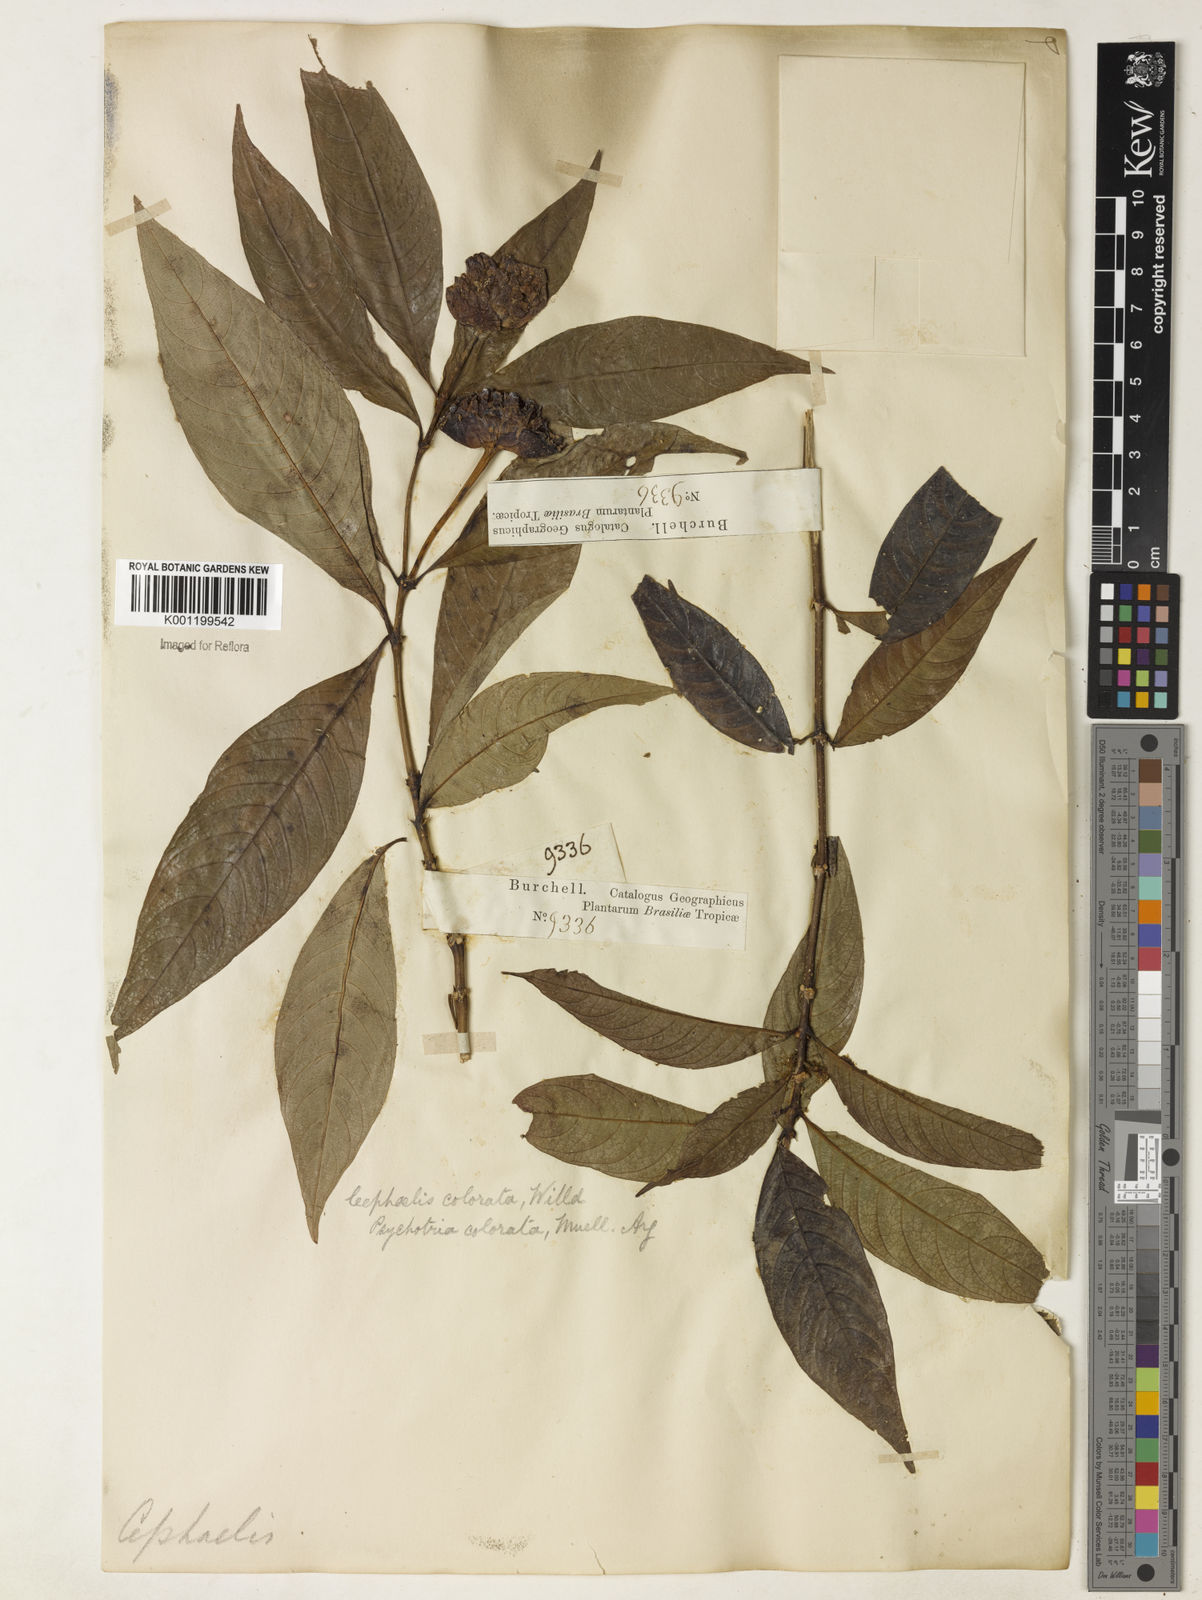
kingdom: Plantae
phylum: Tracheophyta
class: Magnoliopsida
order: Gentianales
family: Rubiaceae
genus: Psychotria
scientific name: Psychotria
